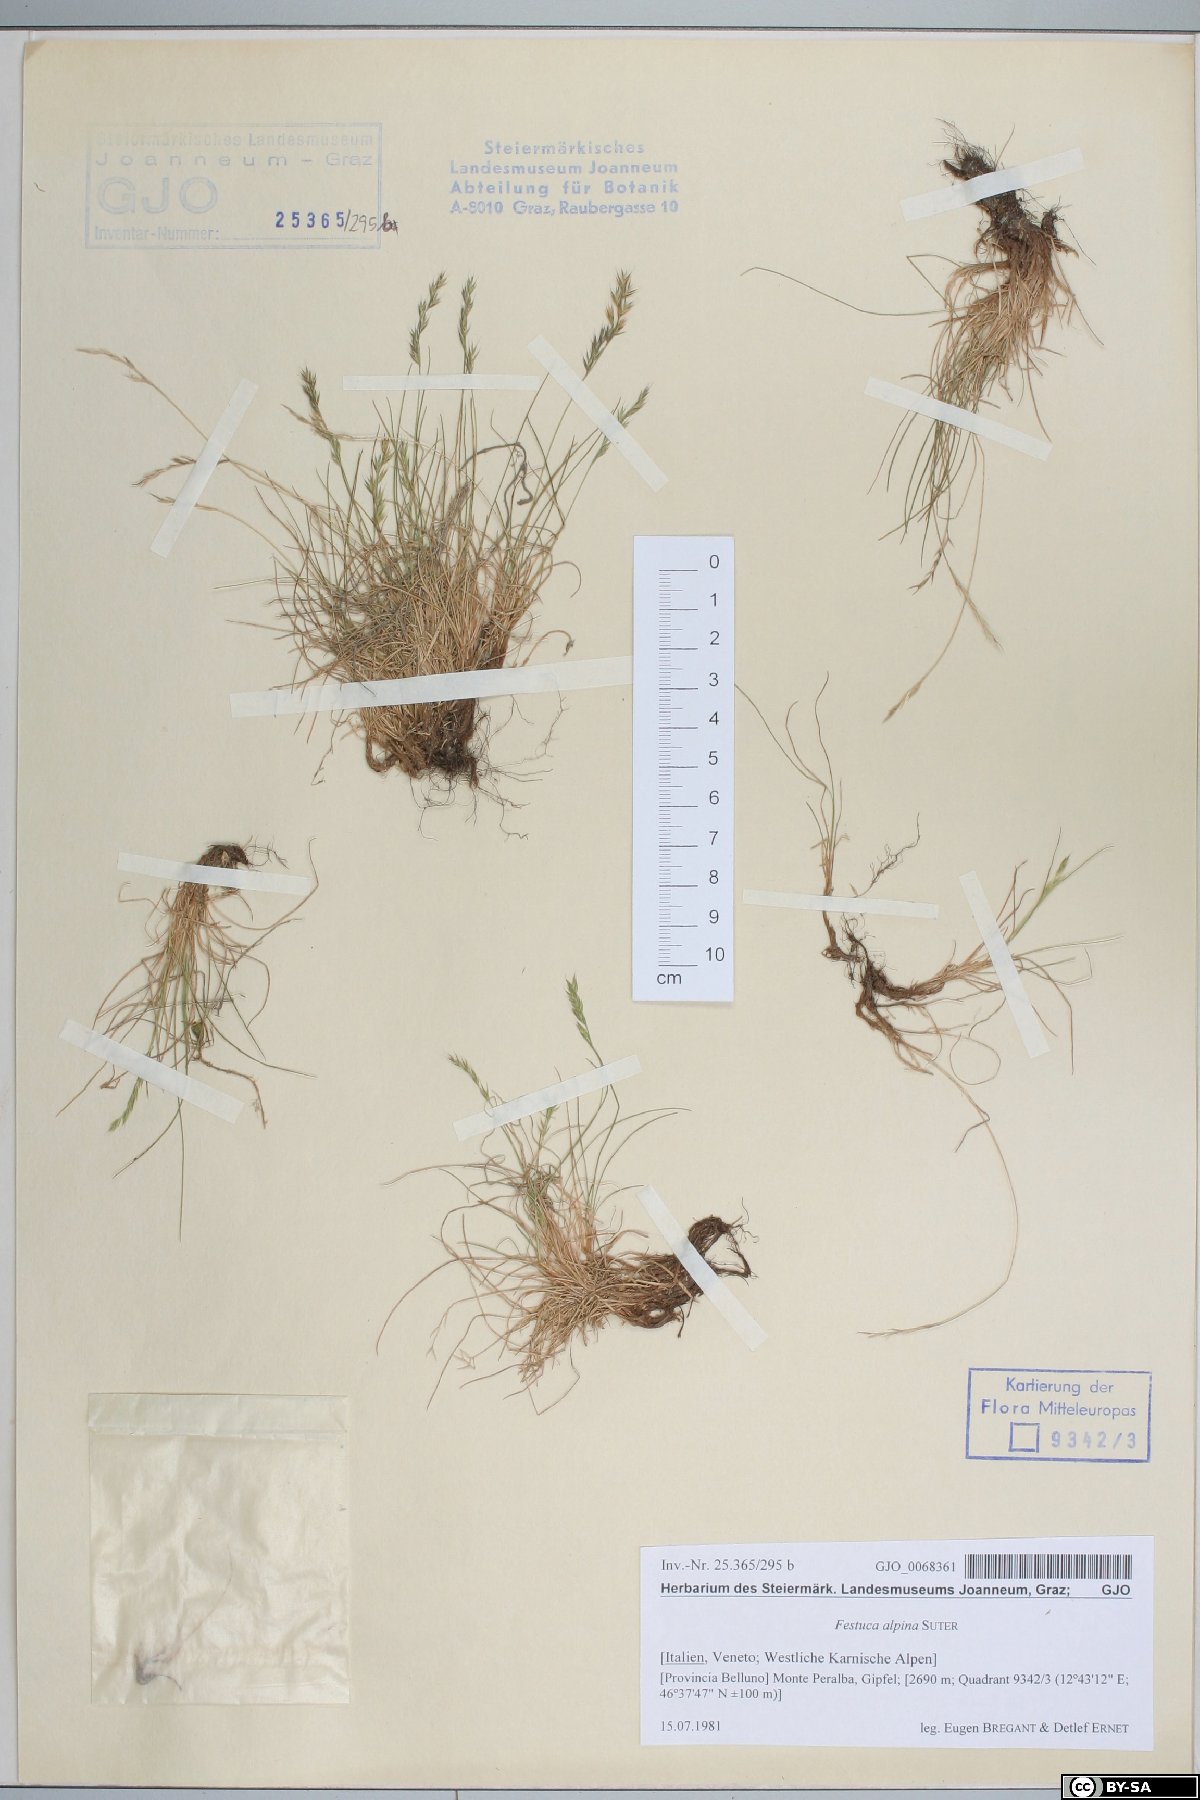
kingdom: Plantae
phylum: Tracheophyta
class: Liliopsida
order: Poales
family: Poaceae
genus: Festuca
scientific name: Festuca alpina
